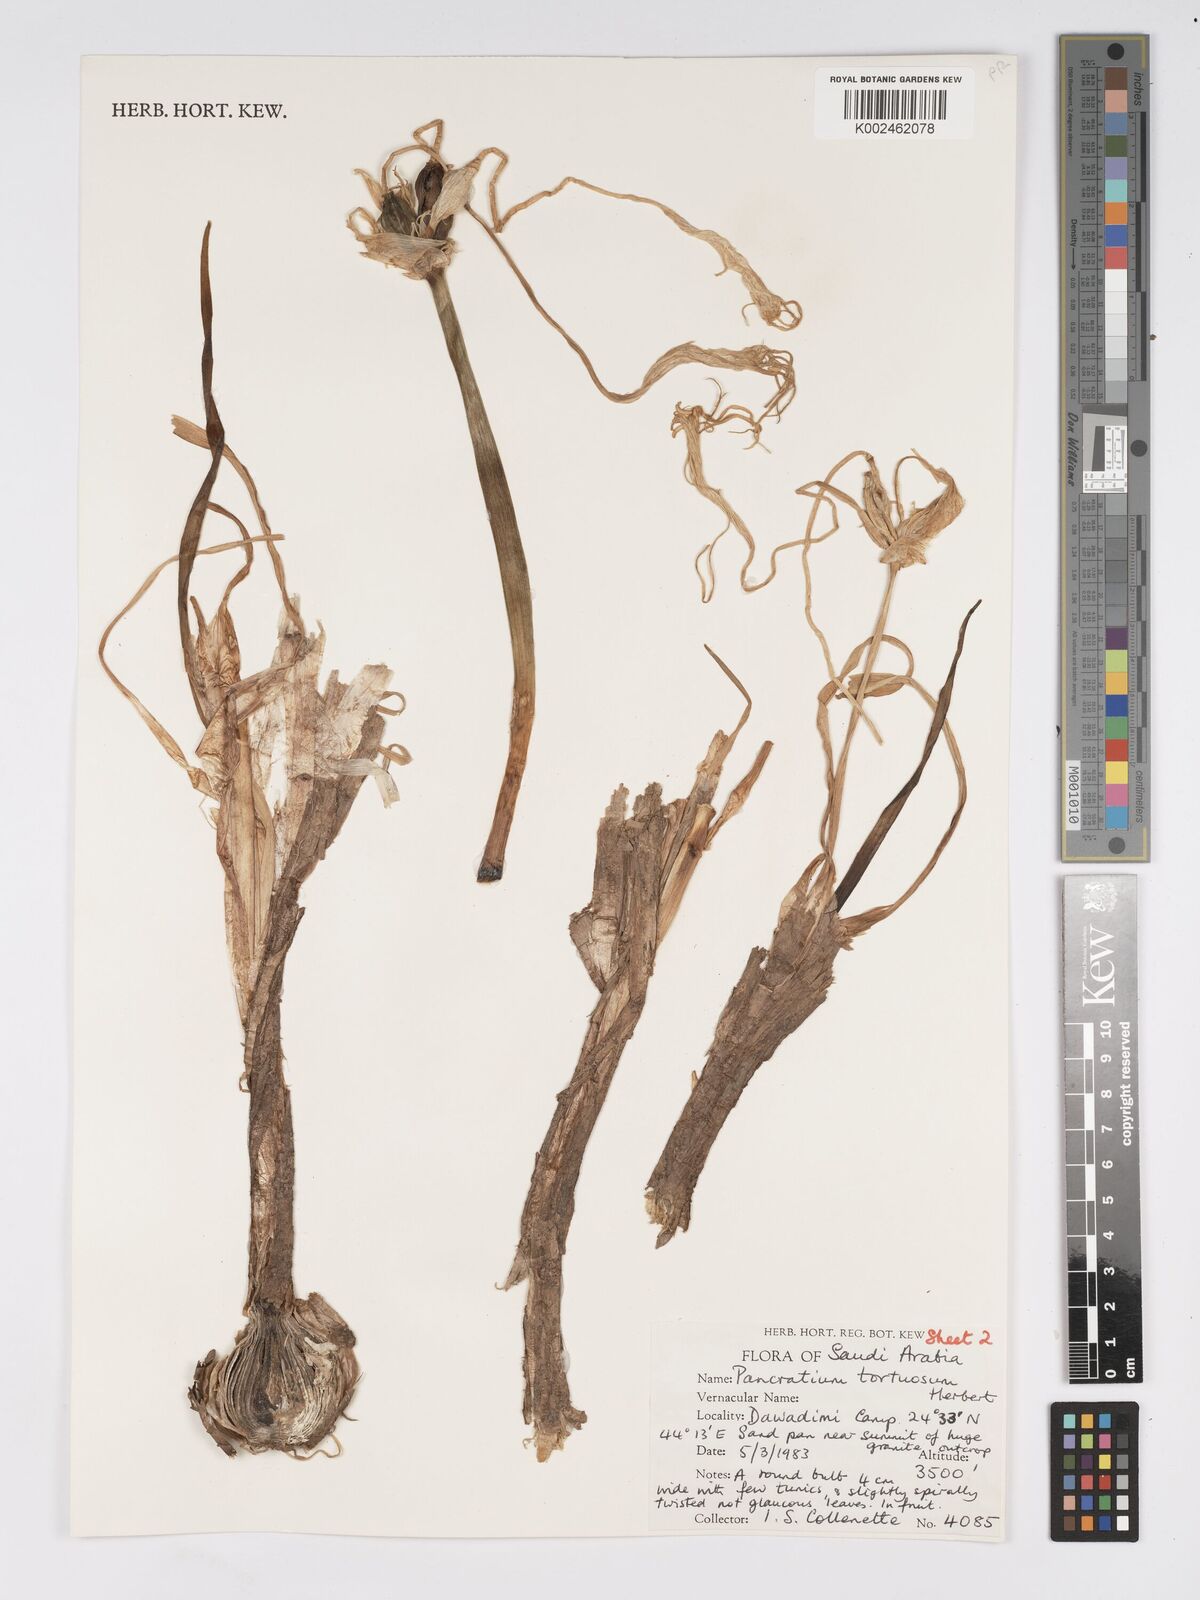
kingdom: Plantae
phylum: Tracheophyta
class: Liliopsida
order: Asparagales
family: Amaryllidaceae
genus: Pancratium
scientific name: Pancratium tortuosum
